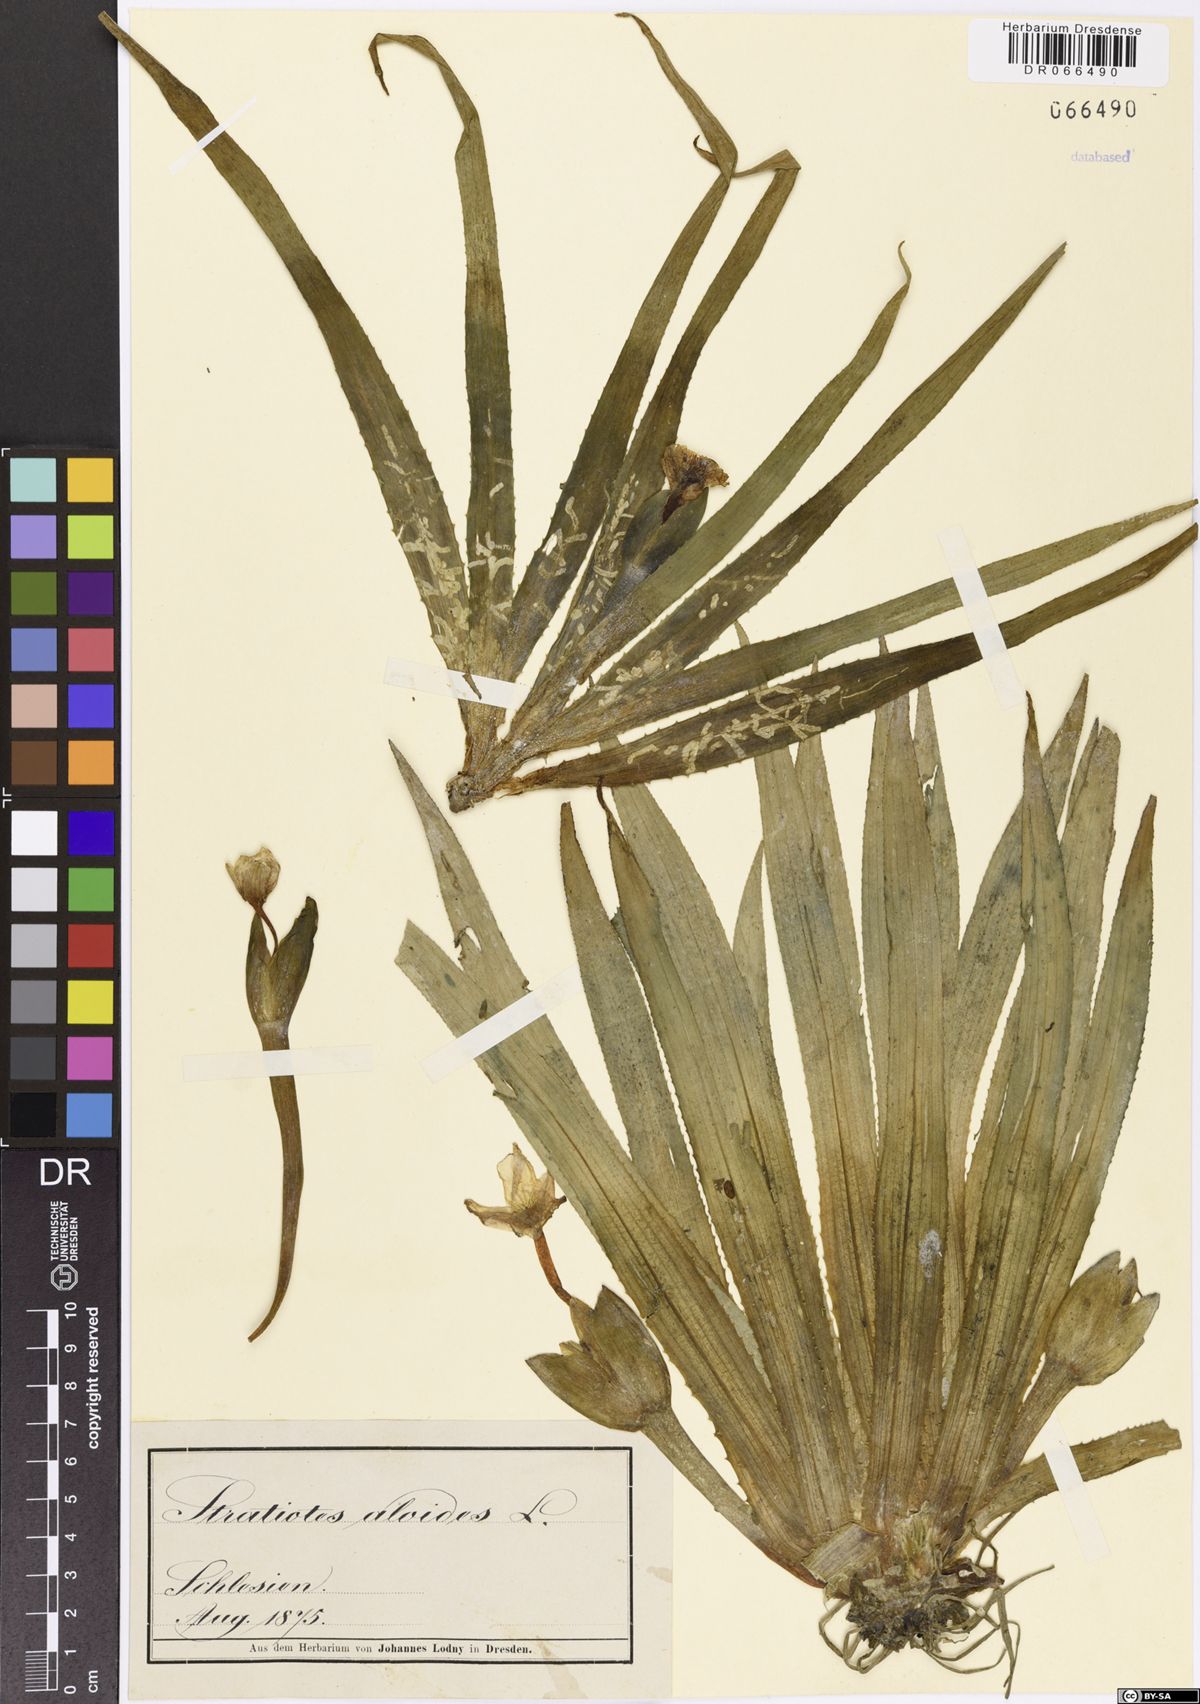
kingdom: Plantae
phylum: Tracheophyta
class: Liliopsida
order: Alismatales
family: Hydrocharitaceae
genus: Stratiotes
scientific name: Stratiotes aloides
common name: Water-soldier
